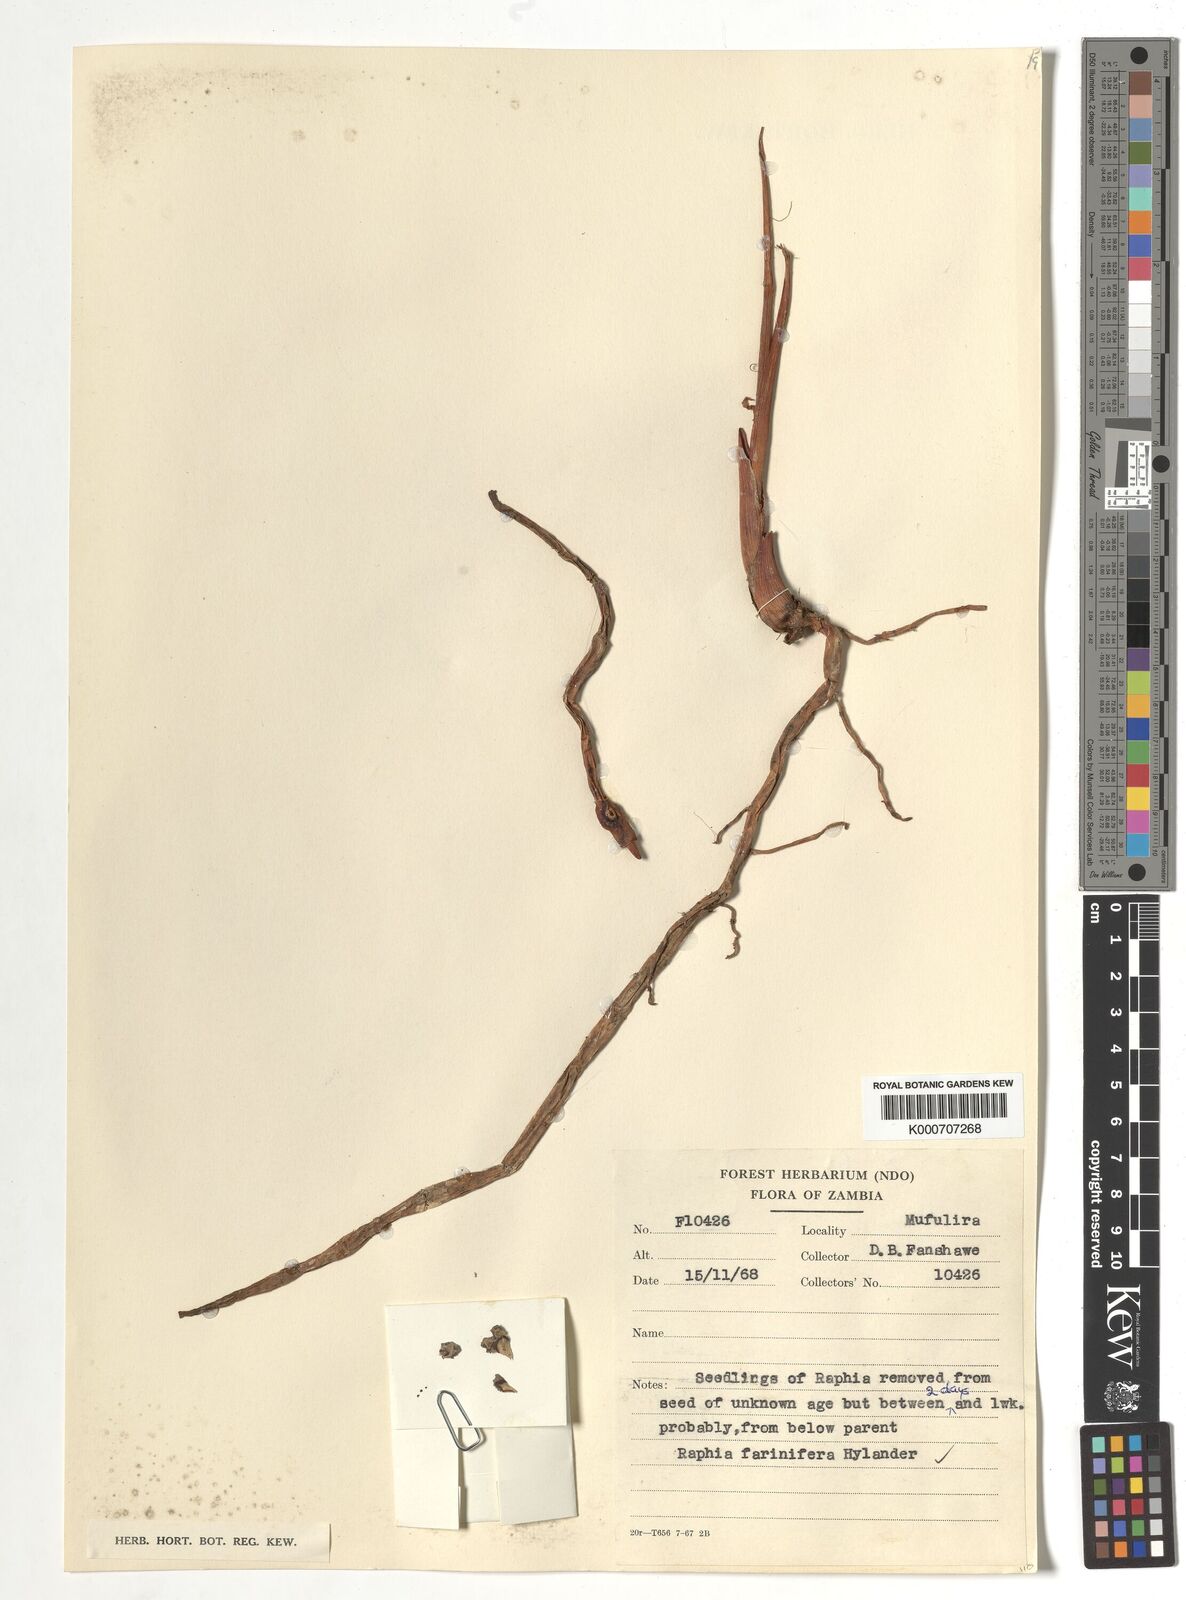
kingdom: Plantae
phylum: Tracheophyta
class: Liliopsida
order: Arecales
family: Arecaceae
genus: Raphia
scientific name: Raphia farinifera
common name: Raphia palm
